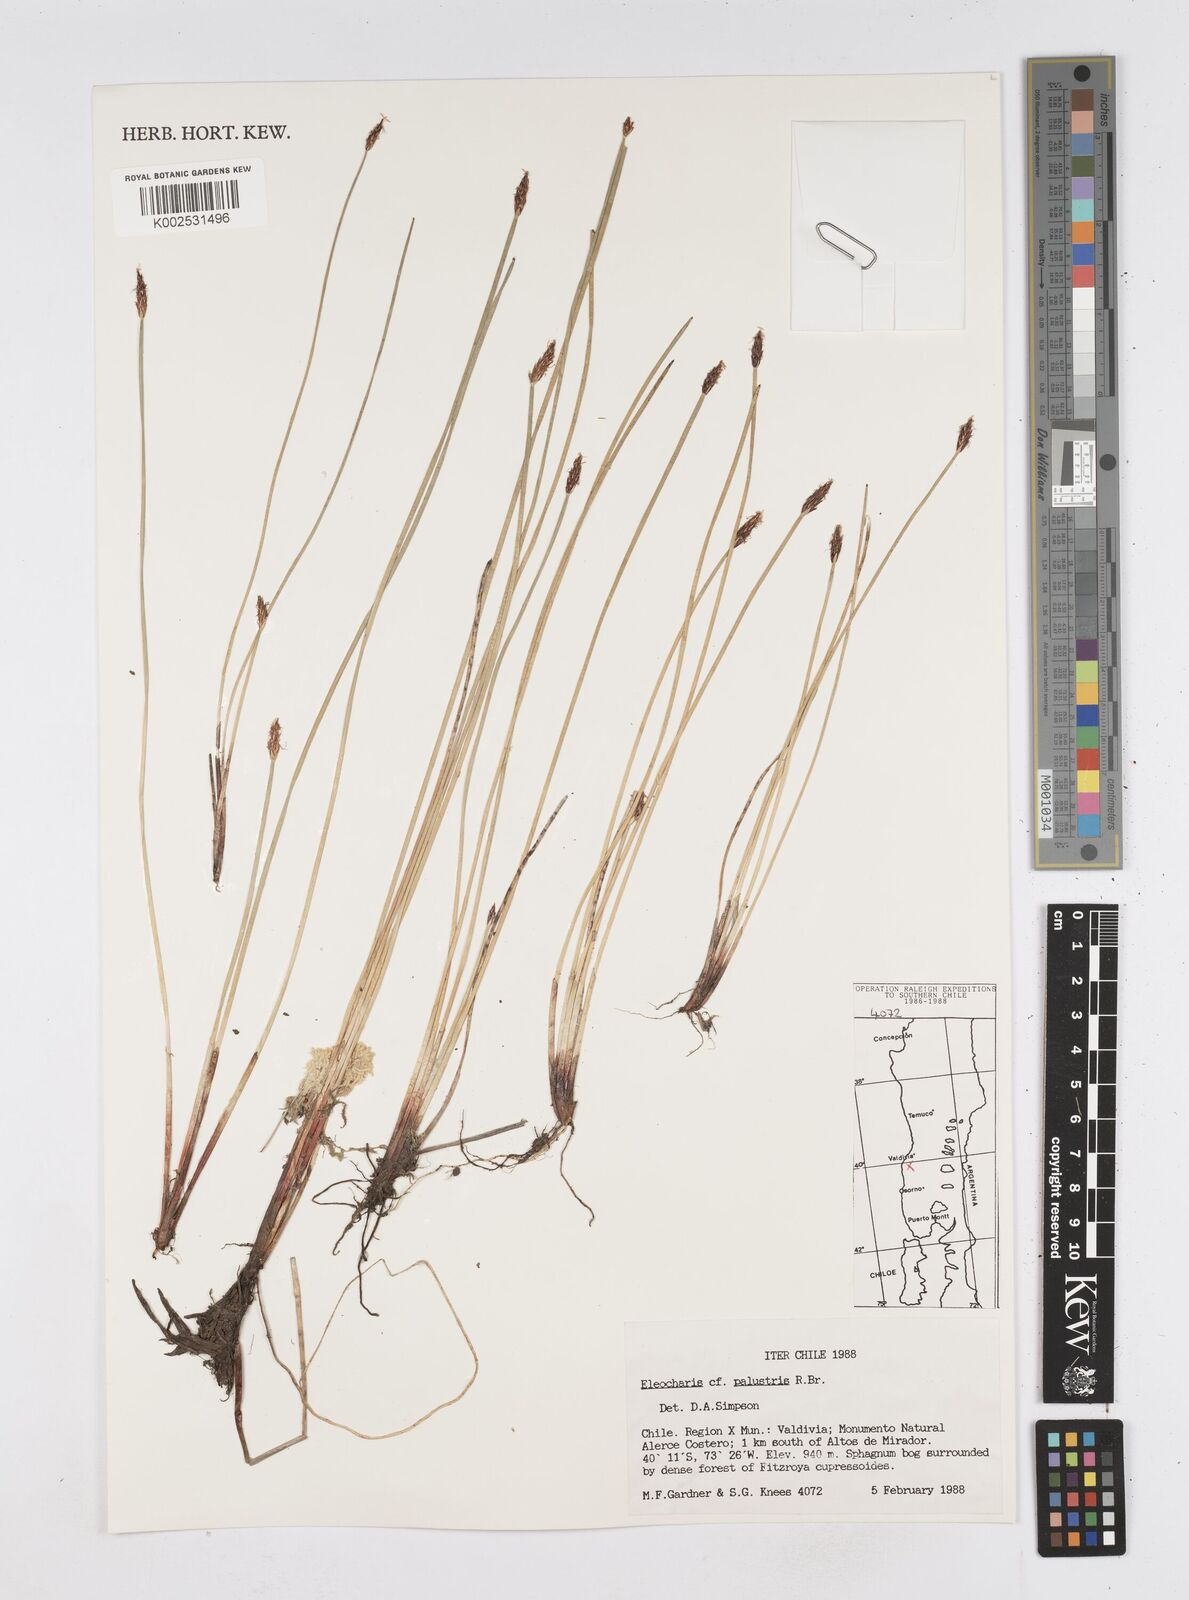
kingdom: Plantae
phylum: Tracheophyta
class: Liliopsida
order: Poales
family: Cyperaceae
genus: Eleocharis
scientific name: Eleocharis palustris
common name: Common spike-rush
